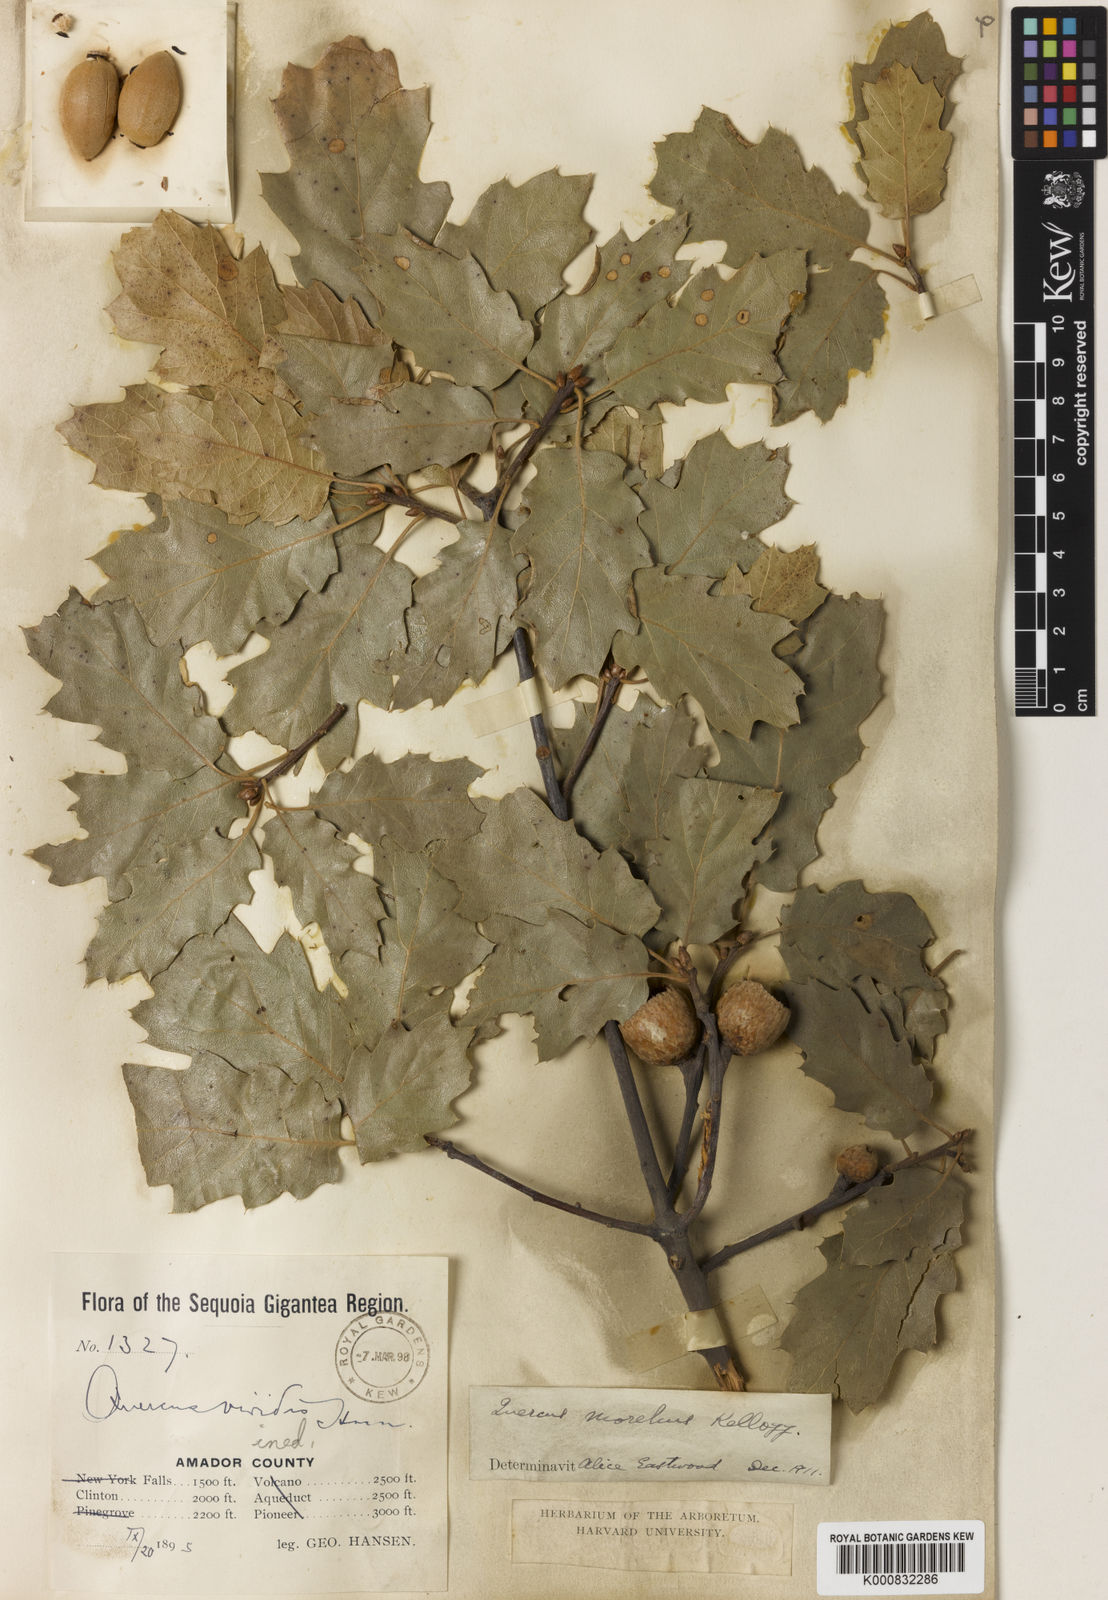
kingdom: Plantae
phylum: Tracheophyta
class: Magnoliopsida
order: Fagales
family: Fagaceae
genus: Quercus
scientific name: Quercus morehus
